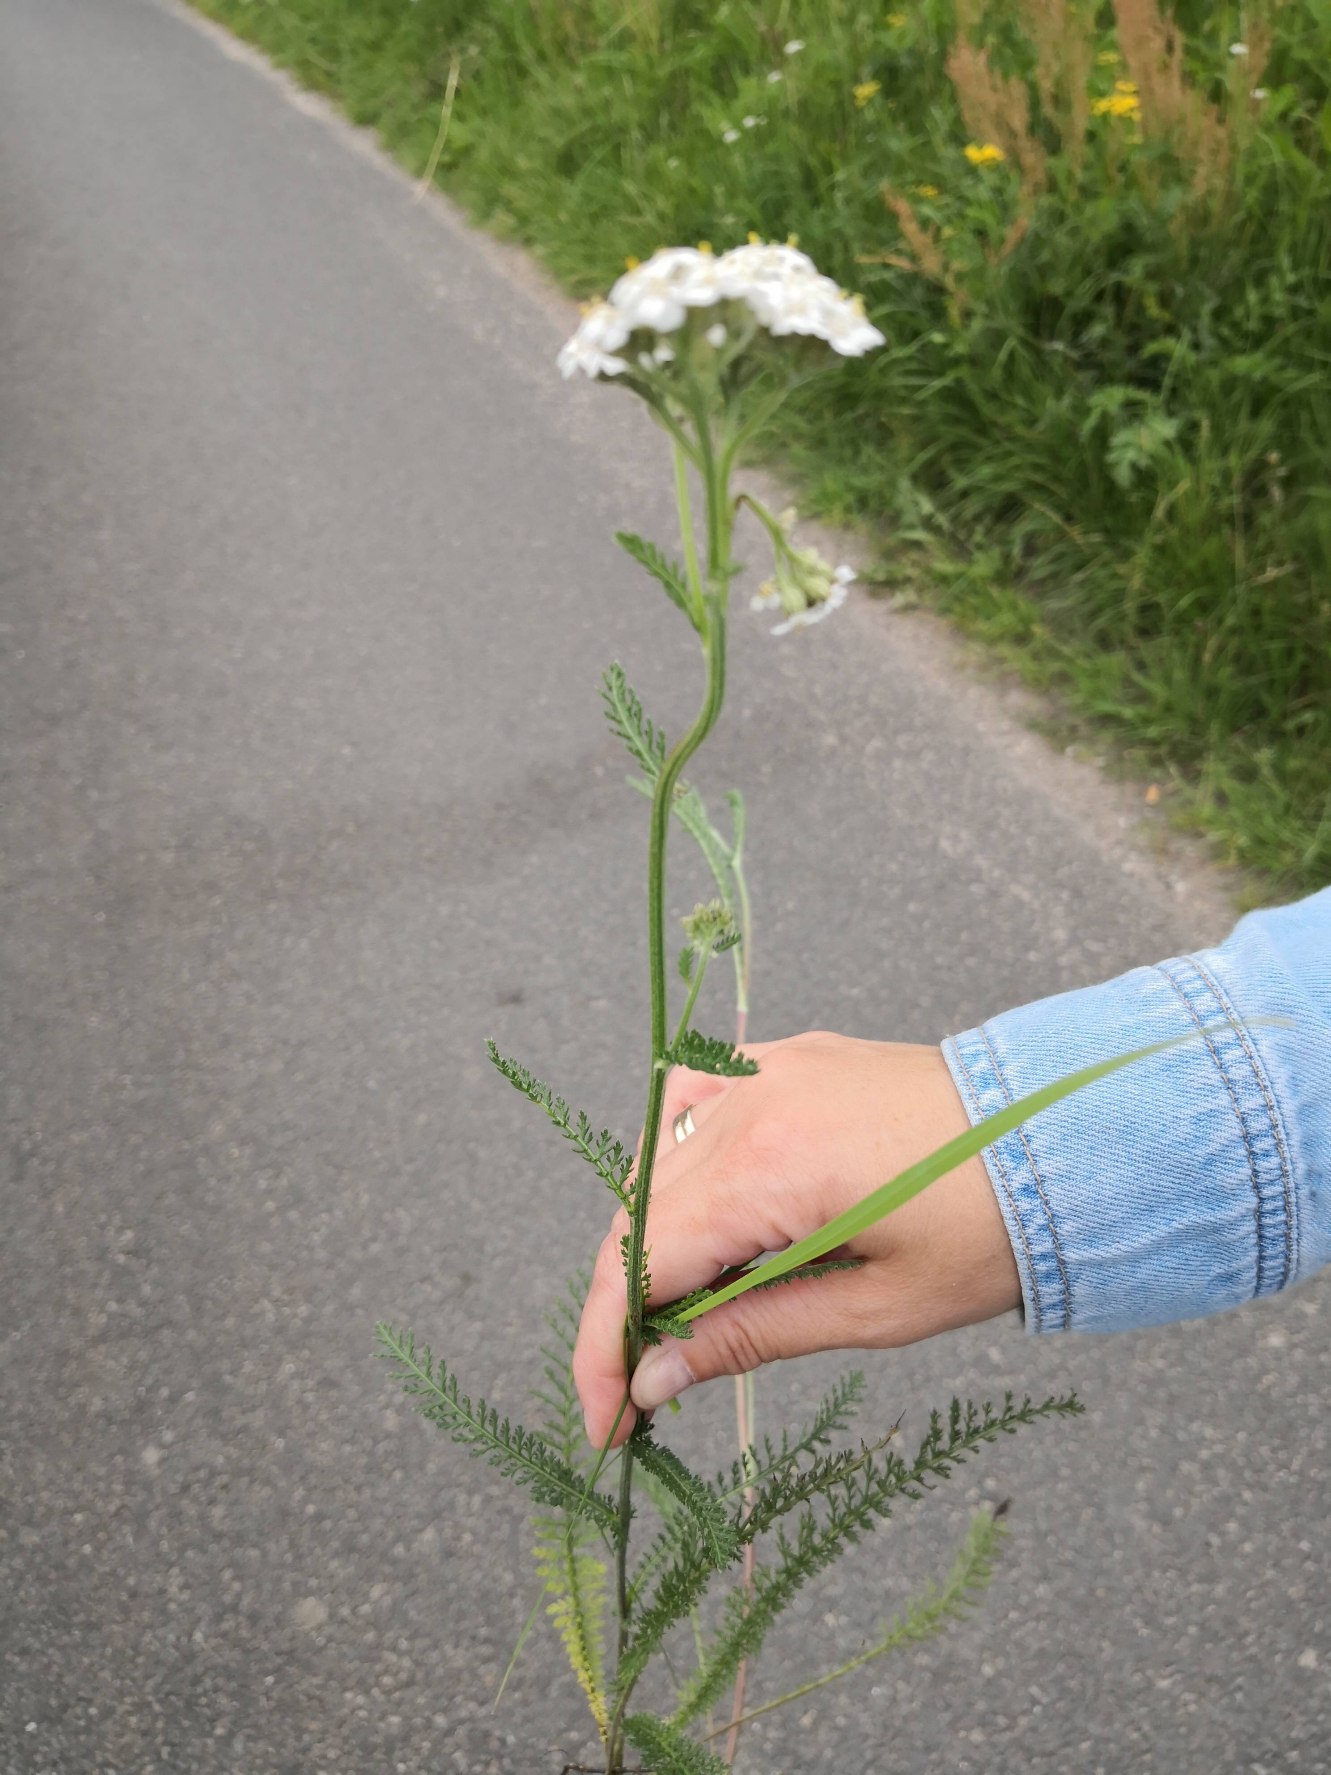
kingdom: Plantae
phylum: Tracheophyta
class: Magnoliopsida
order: Asterales
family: Asteraceae
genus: Achillea
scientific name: Achillea millefolium
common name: Almindelig røllike
